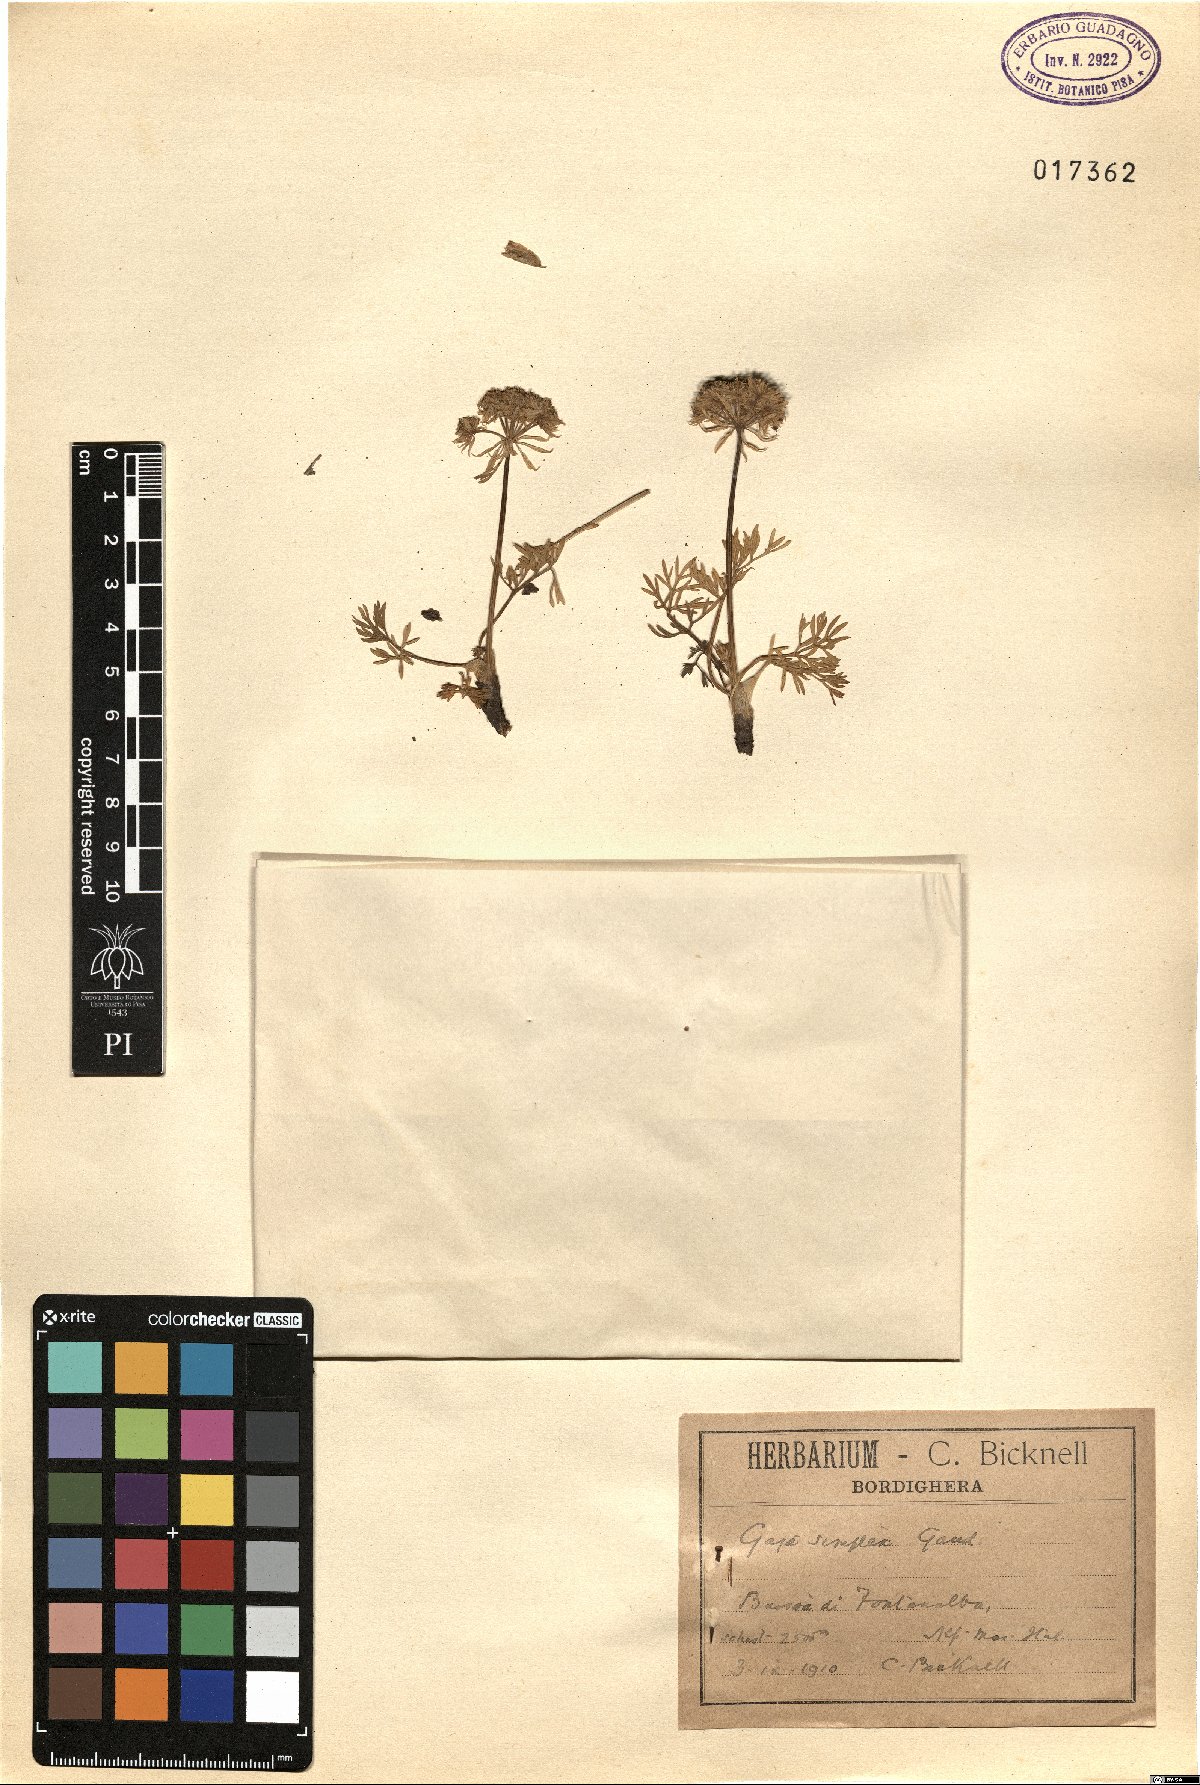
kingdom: Plantae
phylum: Tracheophyta
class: Magnoliopsida
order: Apiales
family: Apiaceae
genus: Pachypleurum
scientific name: Pachypleurum mutellinoides
